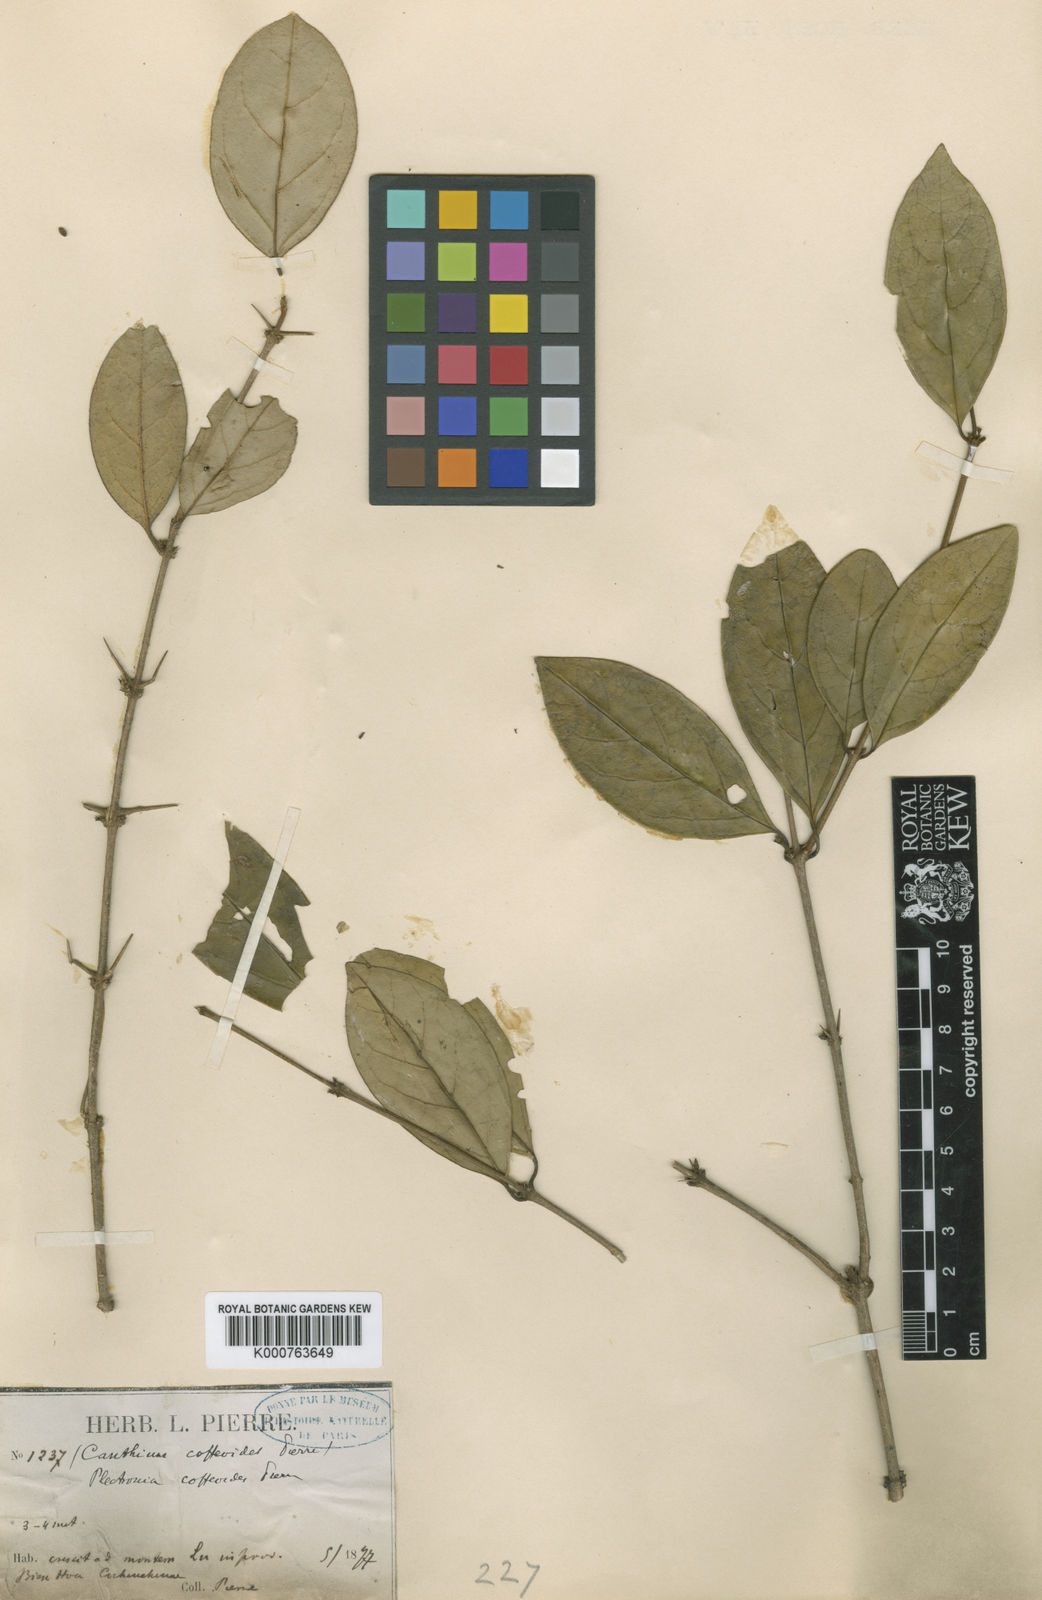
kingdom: Plantae
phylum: Tracheophyta
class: Magnoliopsida
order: Gentianales
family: Rubiaceae
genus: Canthium
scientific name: Canthium coffeoides
